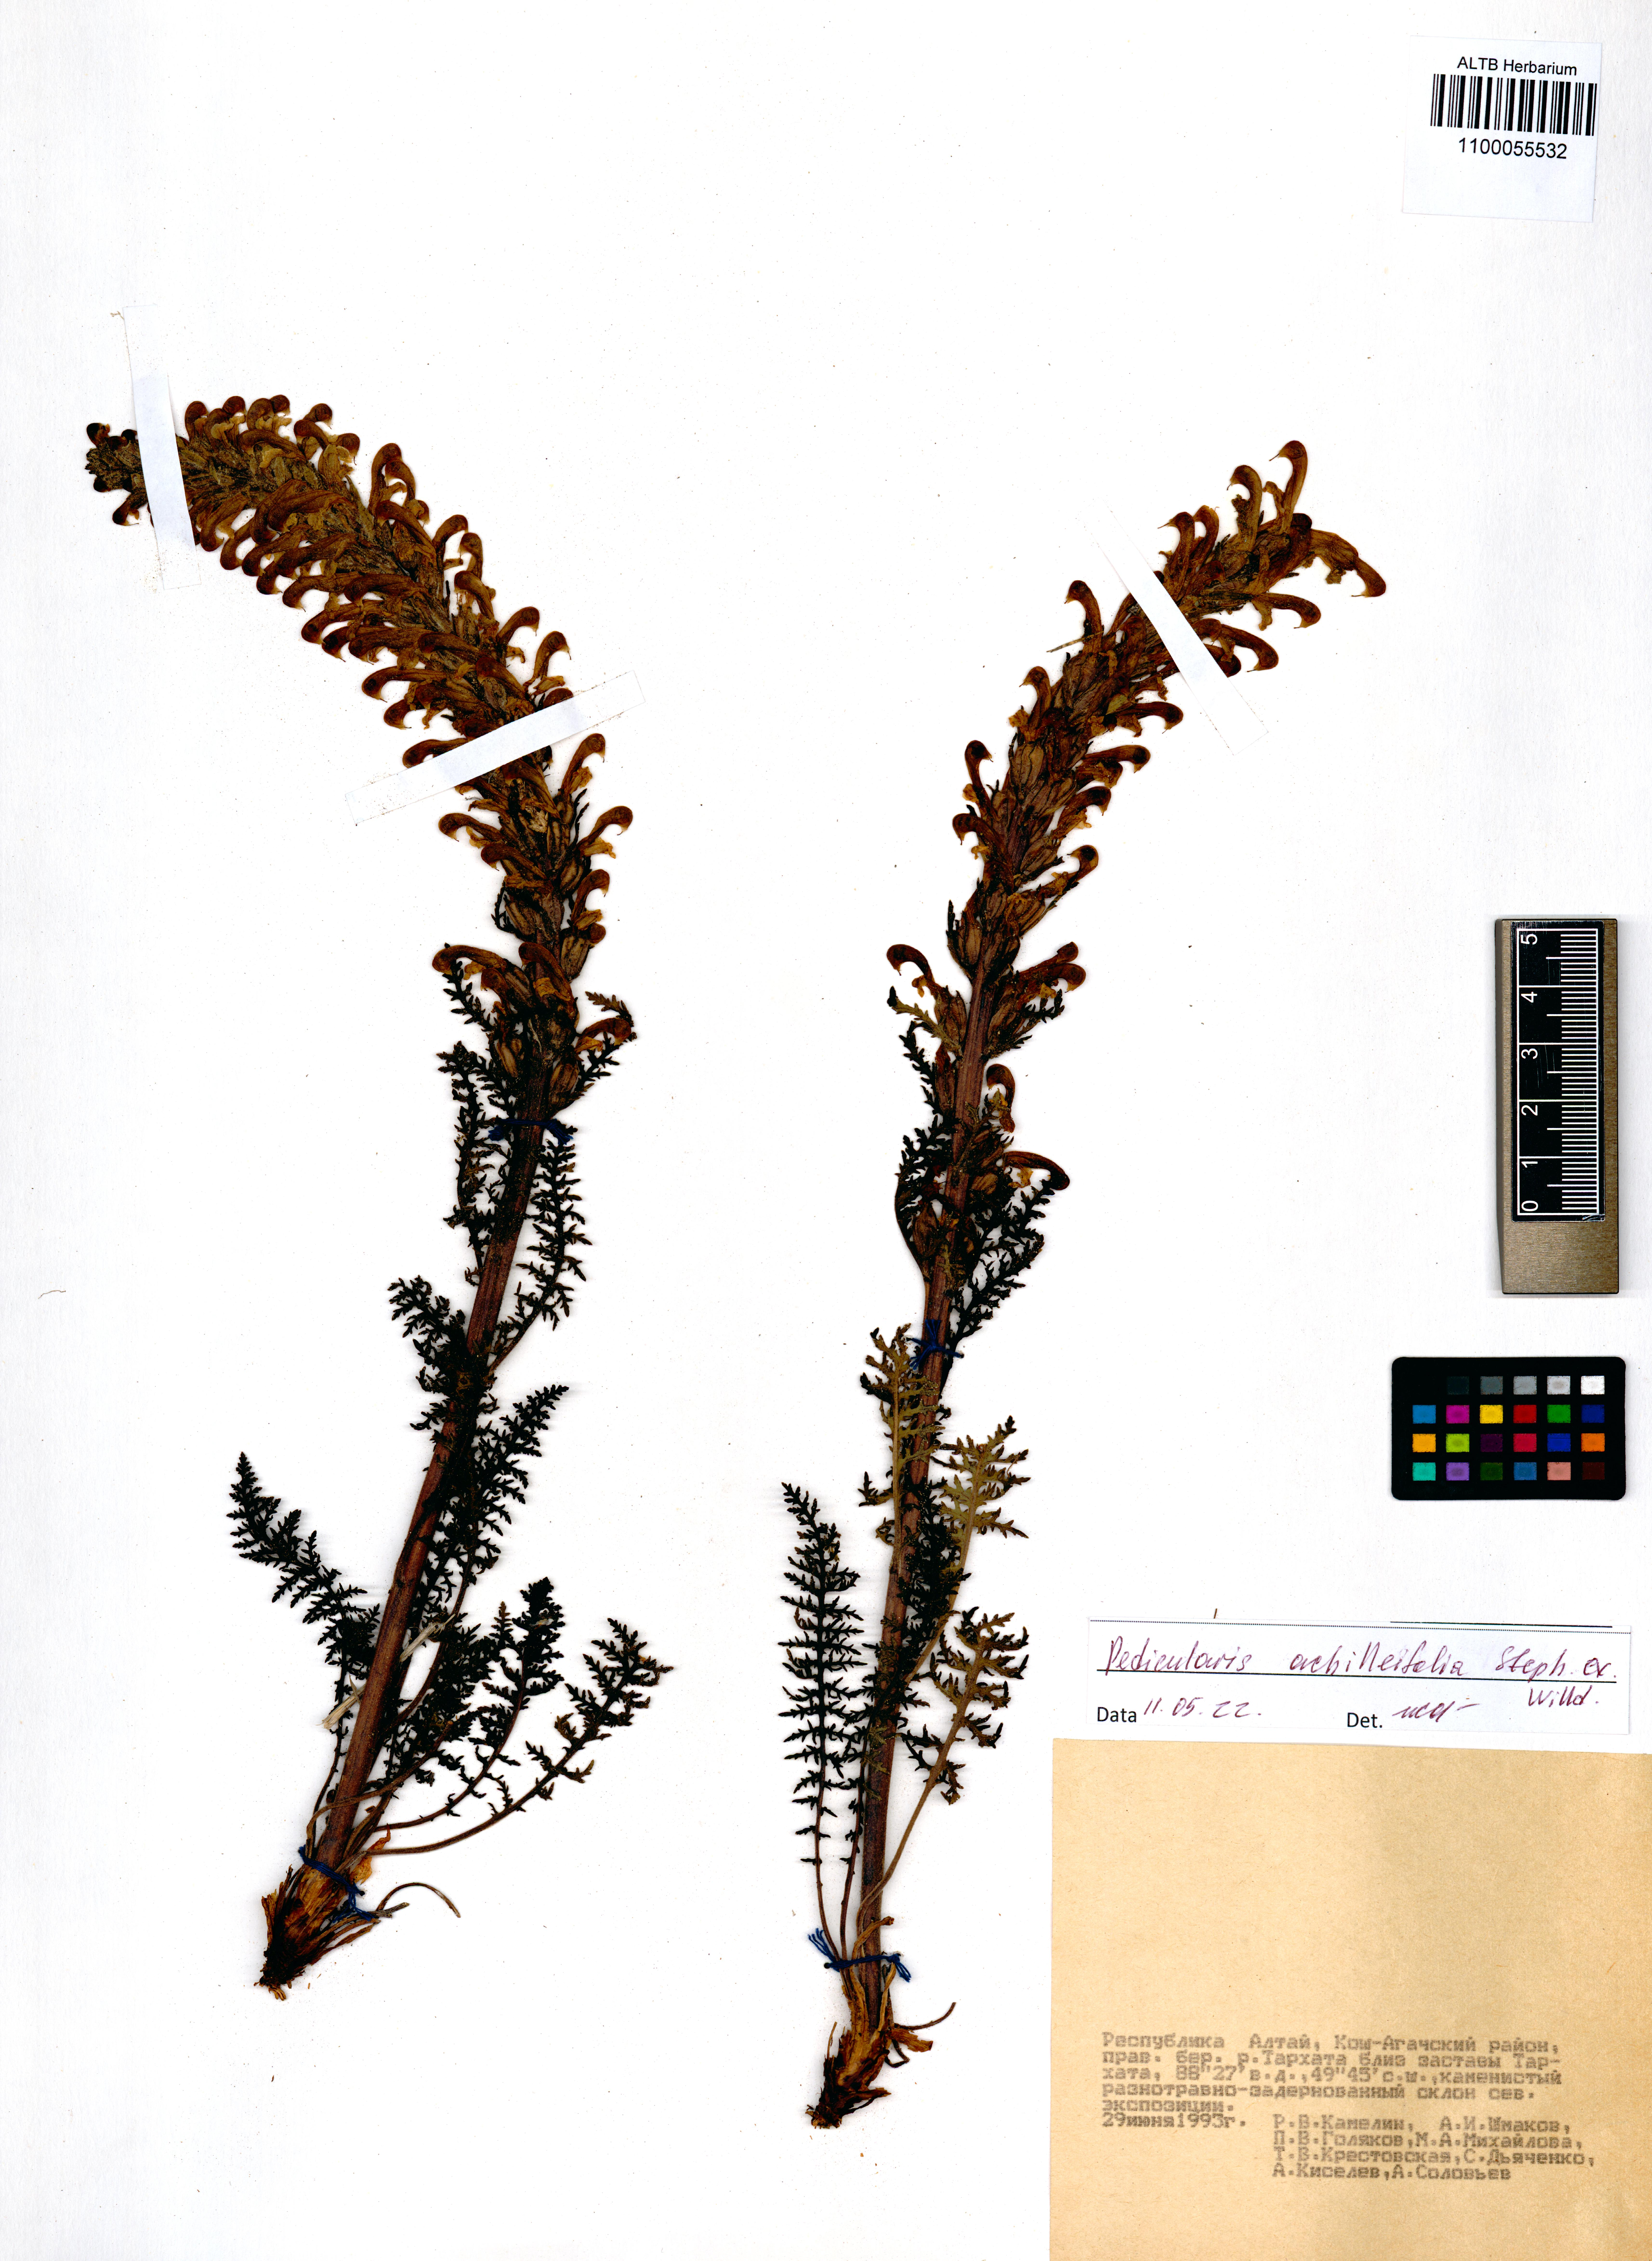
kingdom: Plantae
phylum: Tracheophyta
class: Magnoliopsida
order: Lamiales
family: Orobanchaceae
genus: Pedicularis
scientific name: Pedicularis achilleifolia
